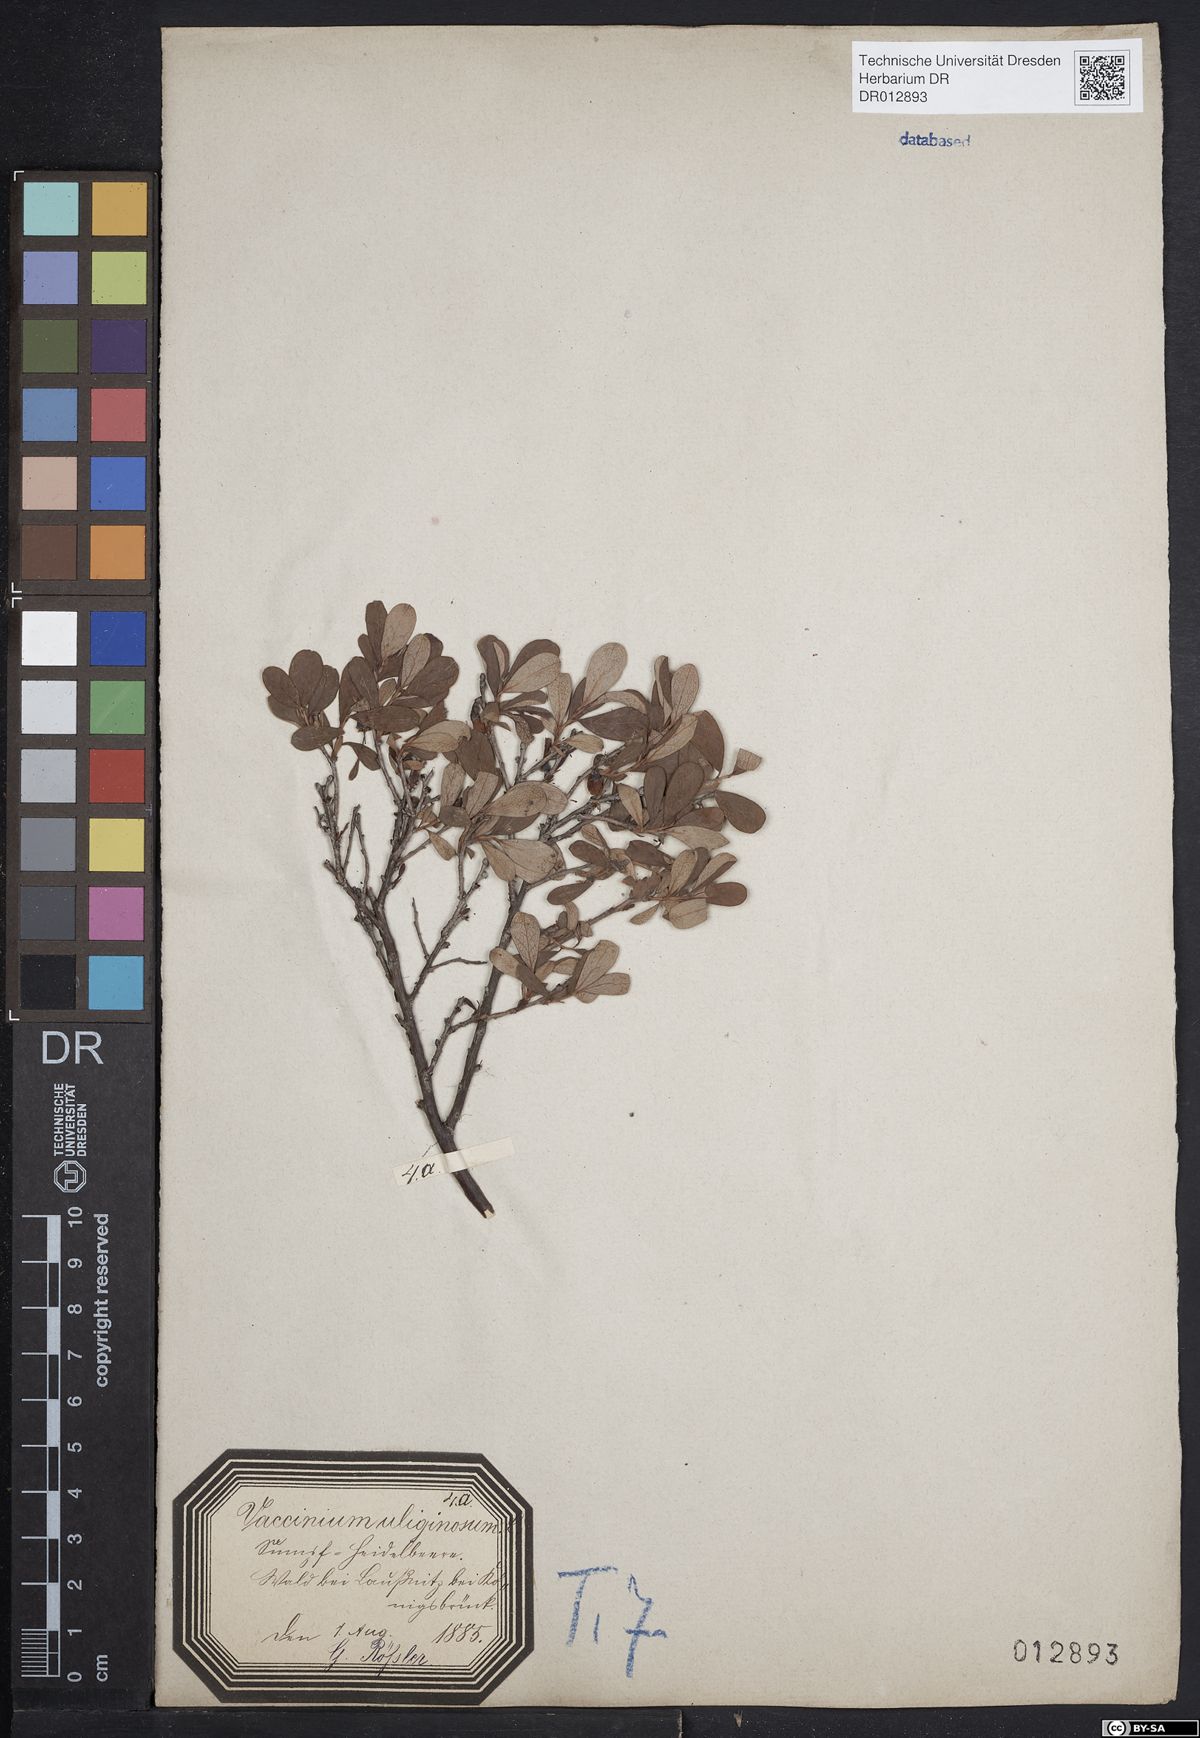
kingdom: Plantae
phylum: Tracheophyta
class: Magnoliopsida
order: Ericales
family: Ericaceae
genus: Vaccinium
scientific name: Vaccinium uliginosum
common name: Bog bilberry
